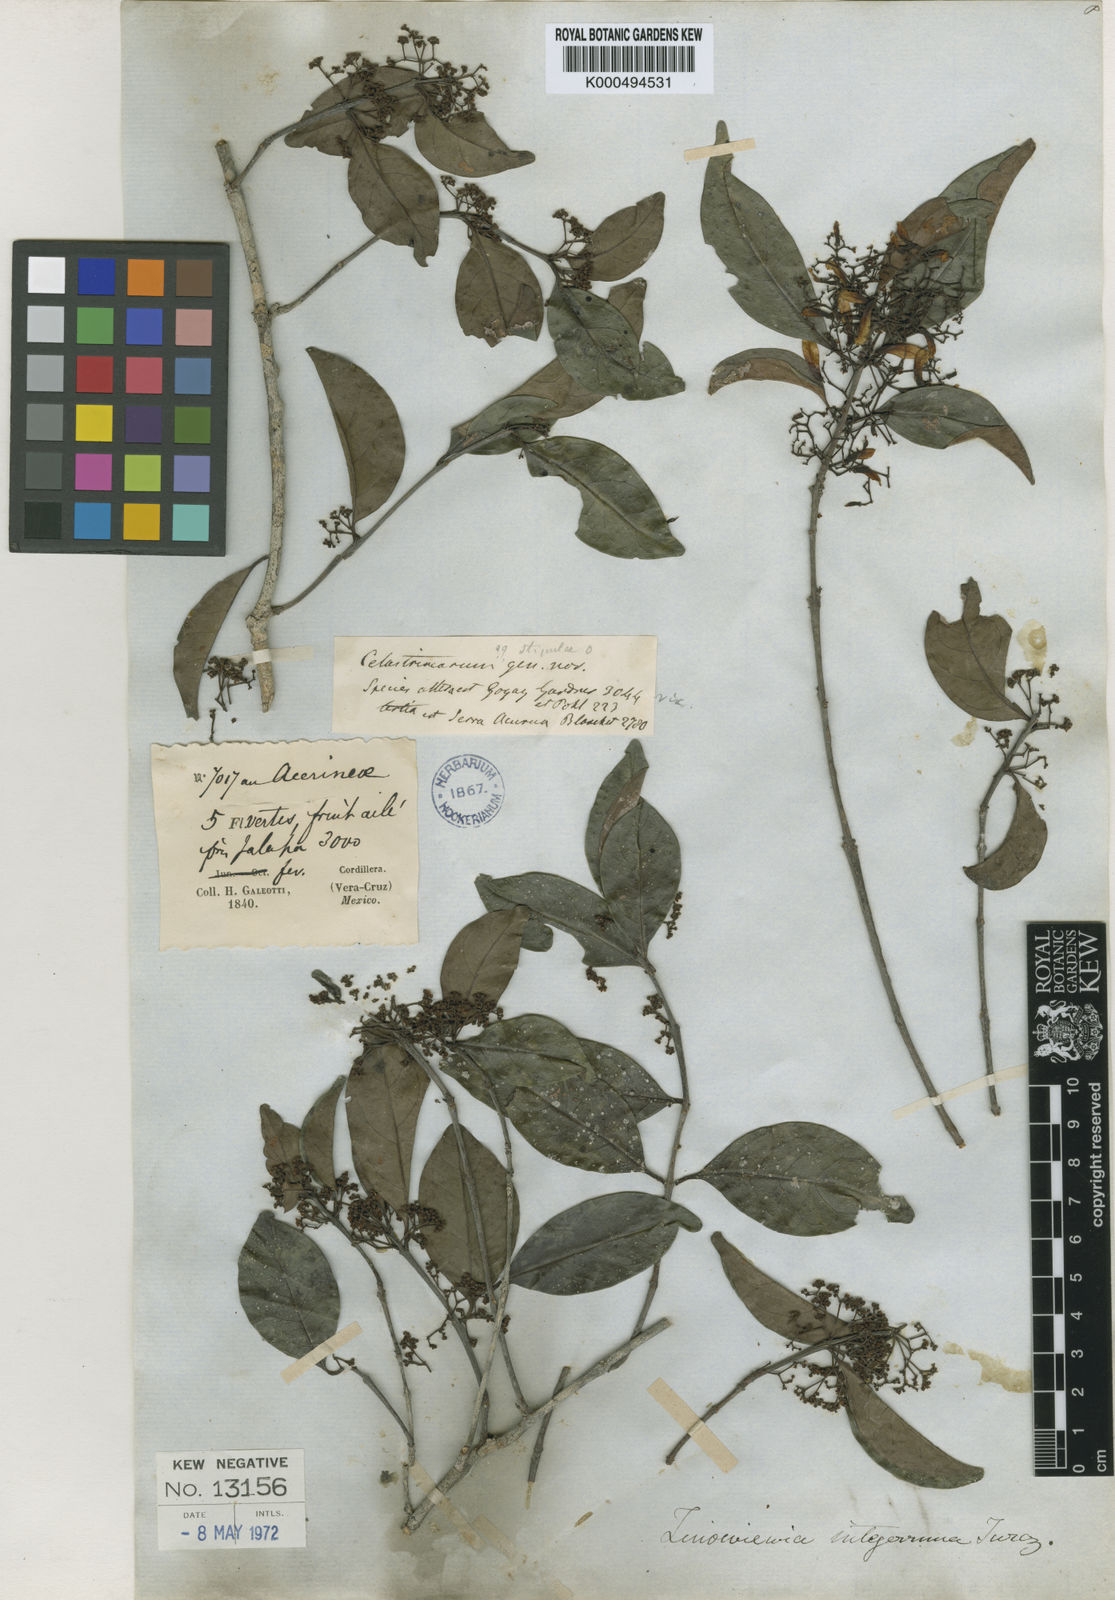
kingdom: Plantae
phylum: Tracheophyta
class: Magnoliopsida
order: Celastrales
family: Celastraceae
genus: Zinowiewia
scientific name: Zinowiewia integerrima
